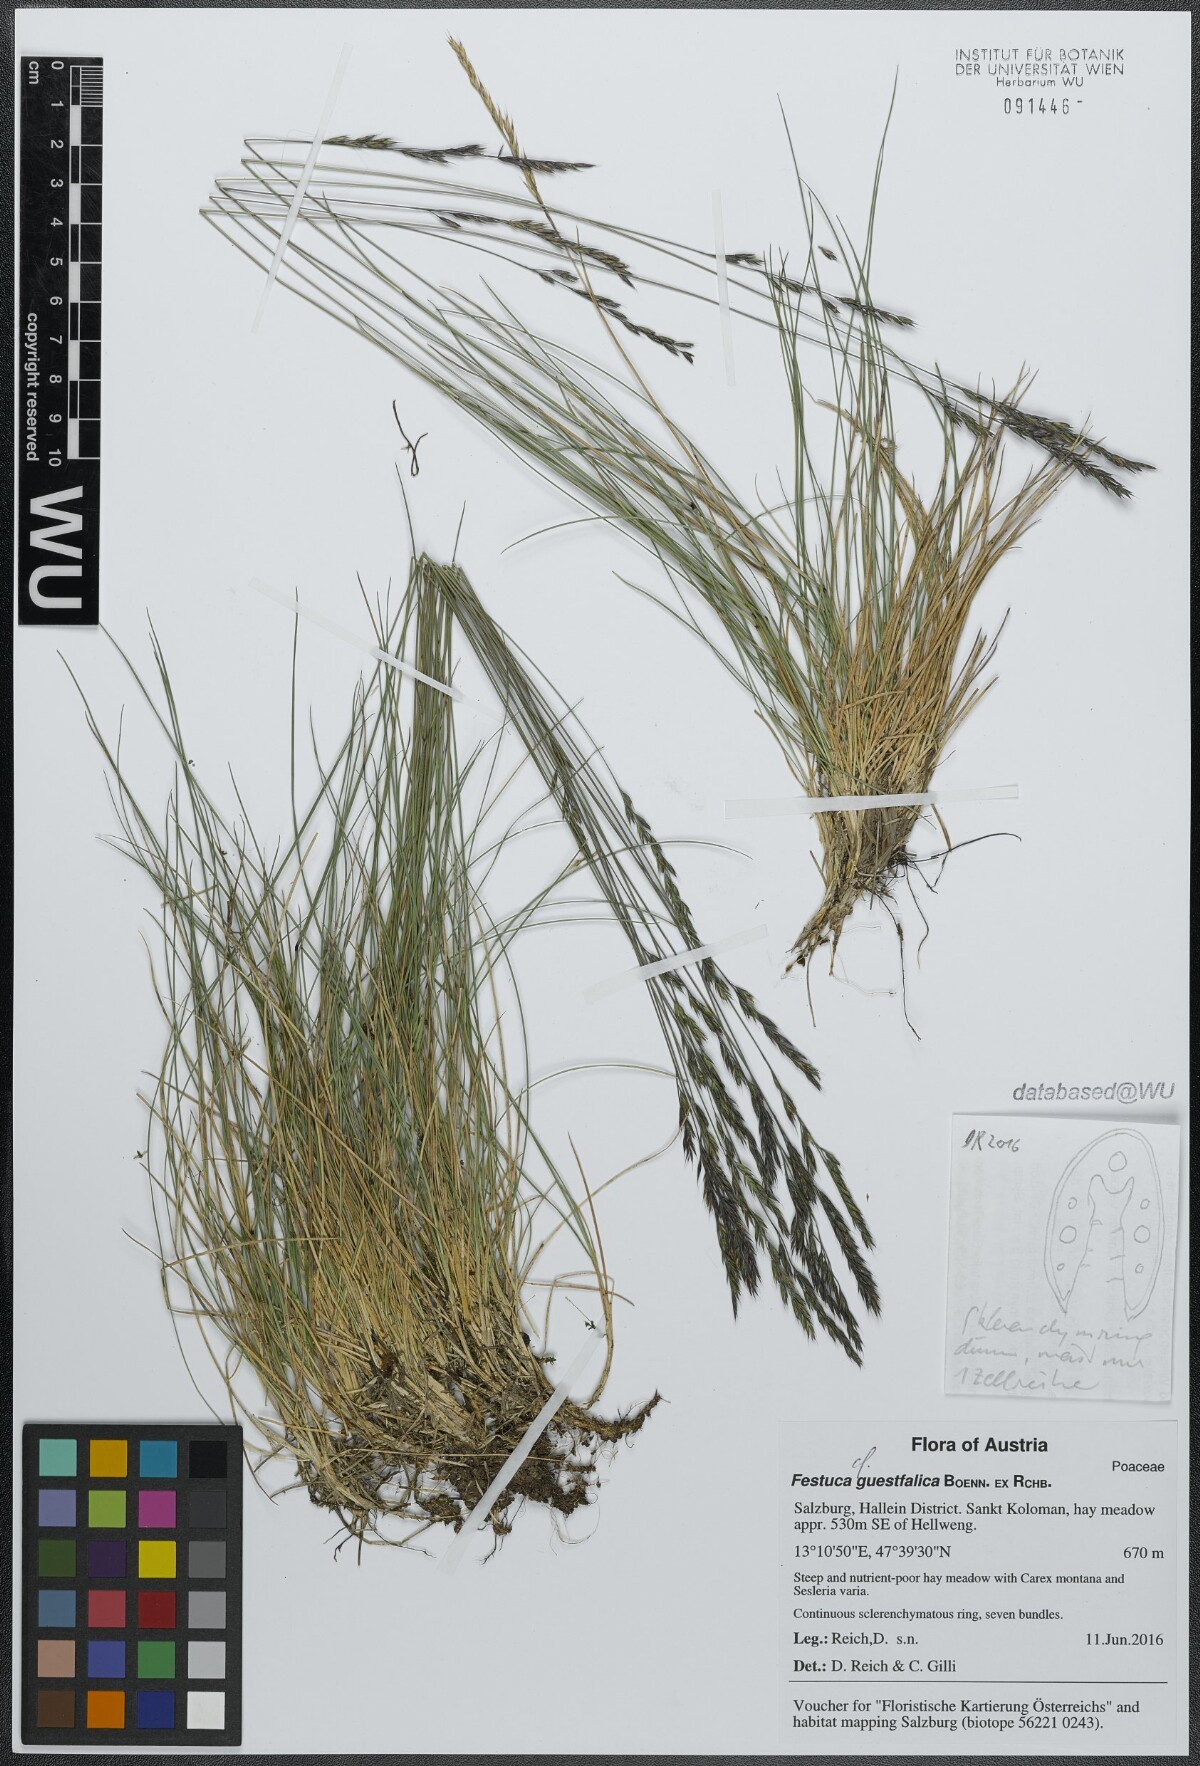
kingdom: Plantae
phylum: Tracheophyta
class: Liliopsida
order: Poales
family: Poaceae
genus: Festuca
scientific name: Festuca guestfalica
